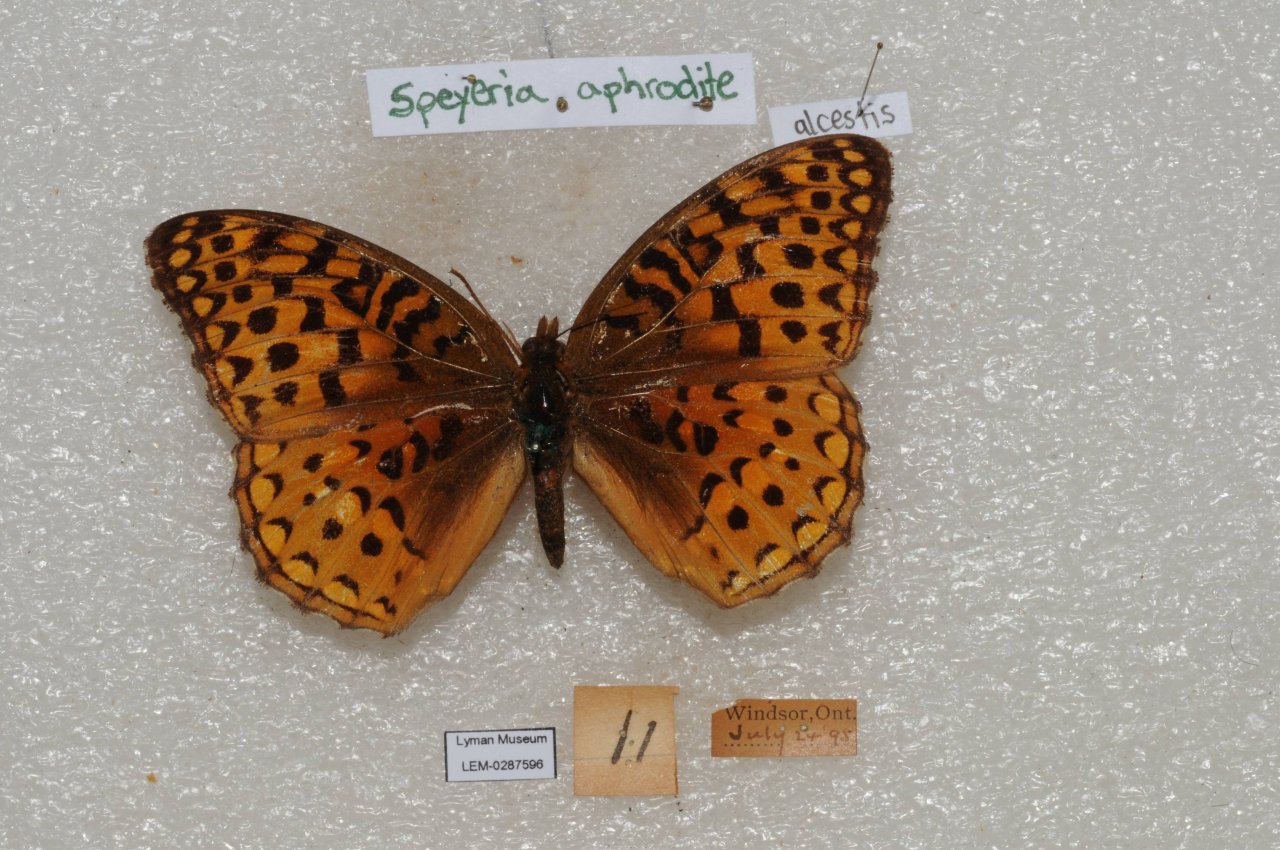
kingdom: Animalia
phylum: Arthropoda
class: Insecta
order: Lepidoptera
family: Nymphalidae
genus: Speyeria
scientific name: Speyeria aphrodite
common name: Aphrodite Fritillary
